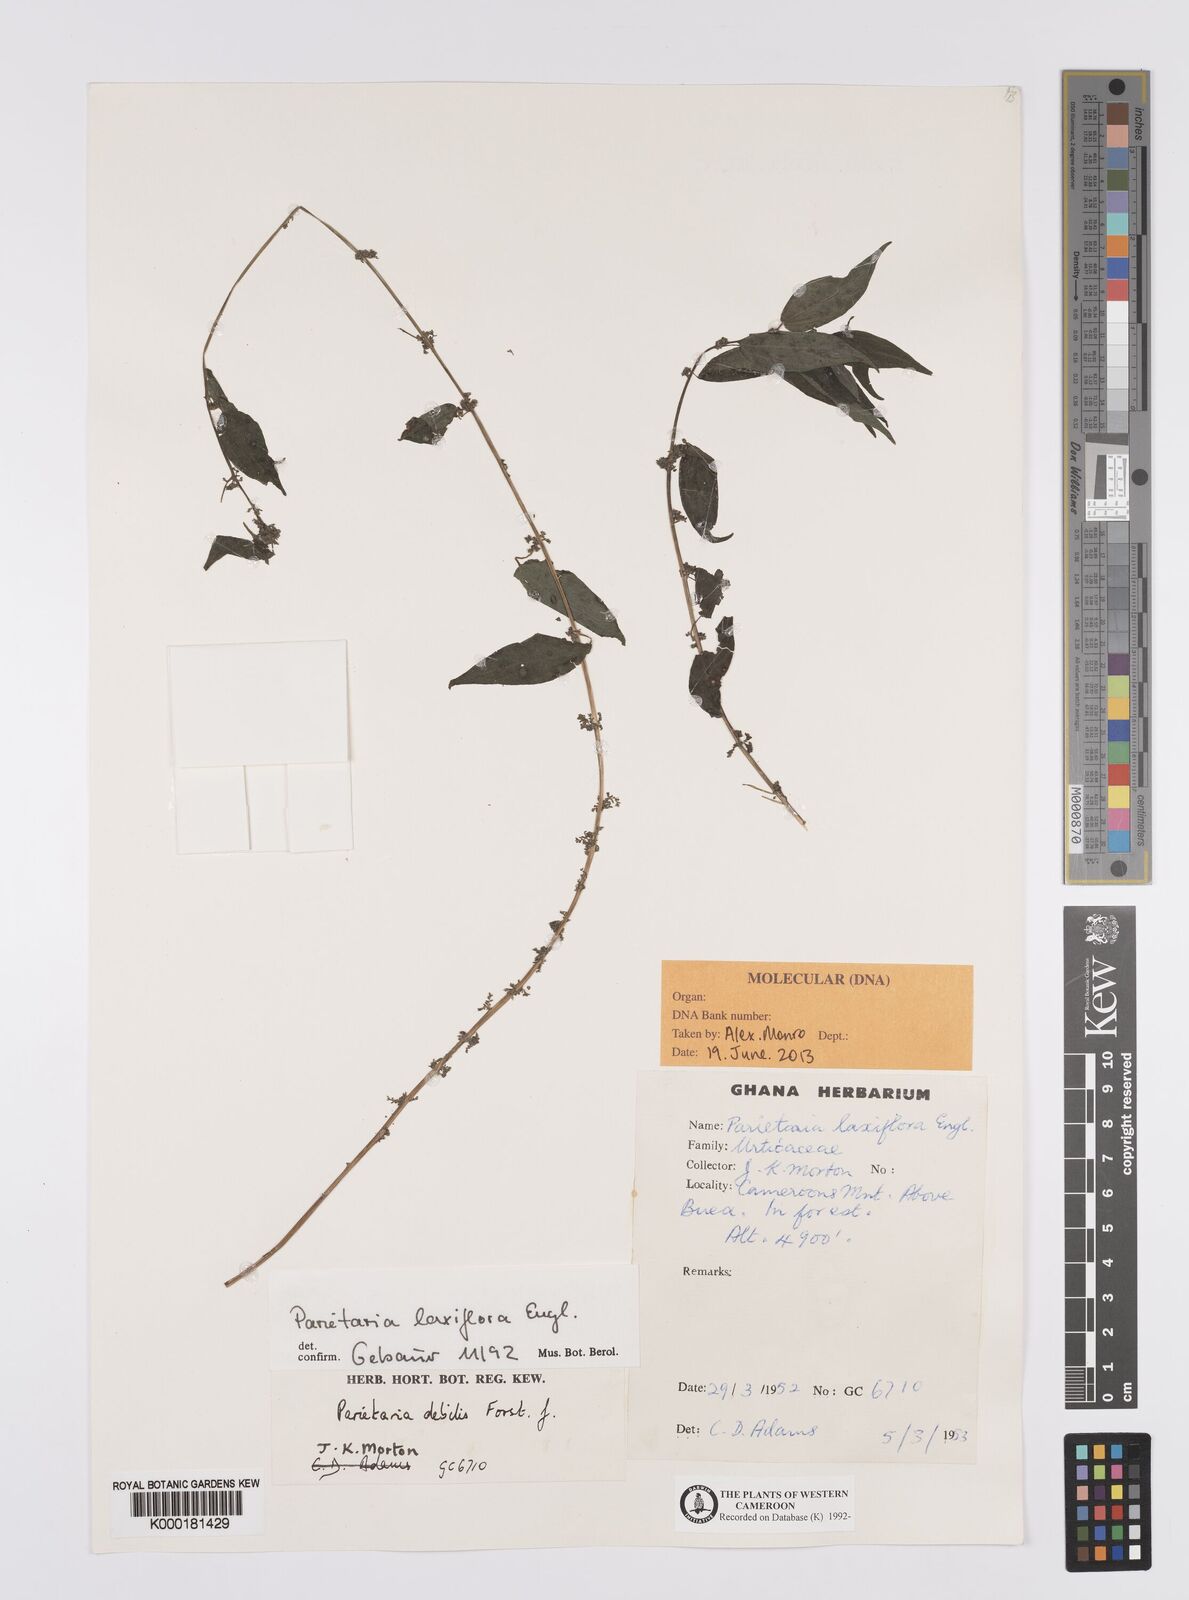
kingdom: Plantae
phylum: Tracheophyta
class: Magnoliopsida
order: Rosales
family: Urticaceae
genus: Parietaria
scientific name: Parietaria debilis
